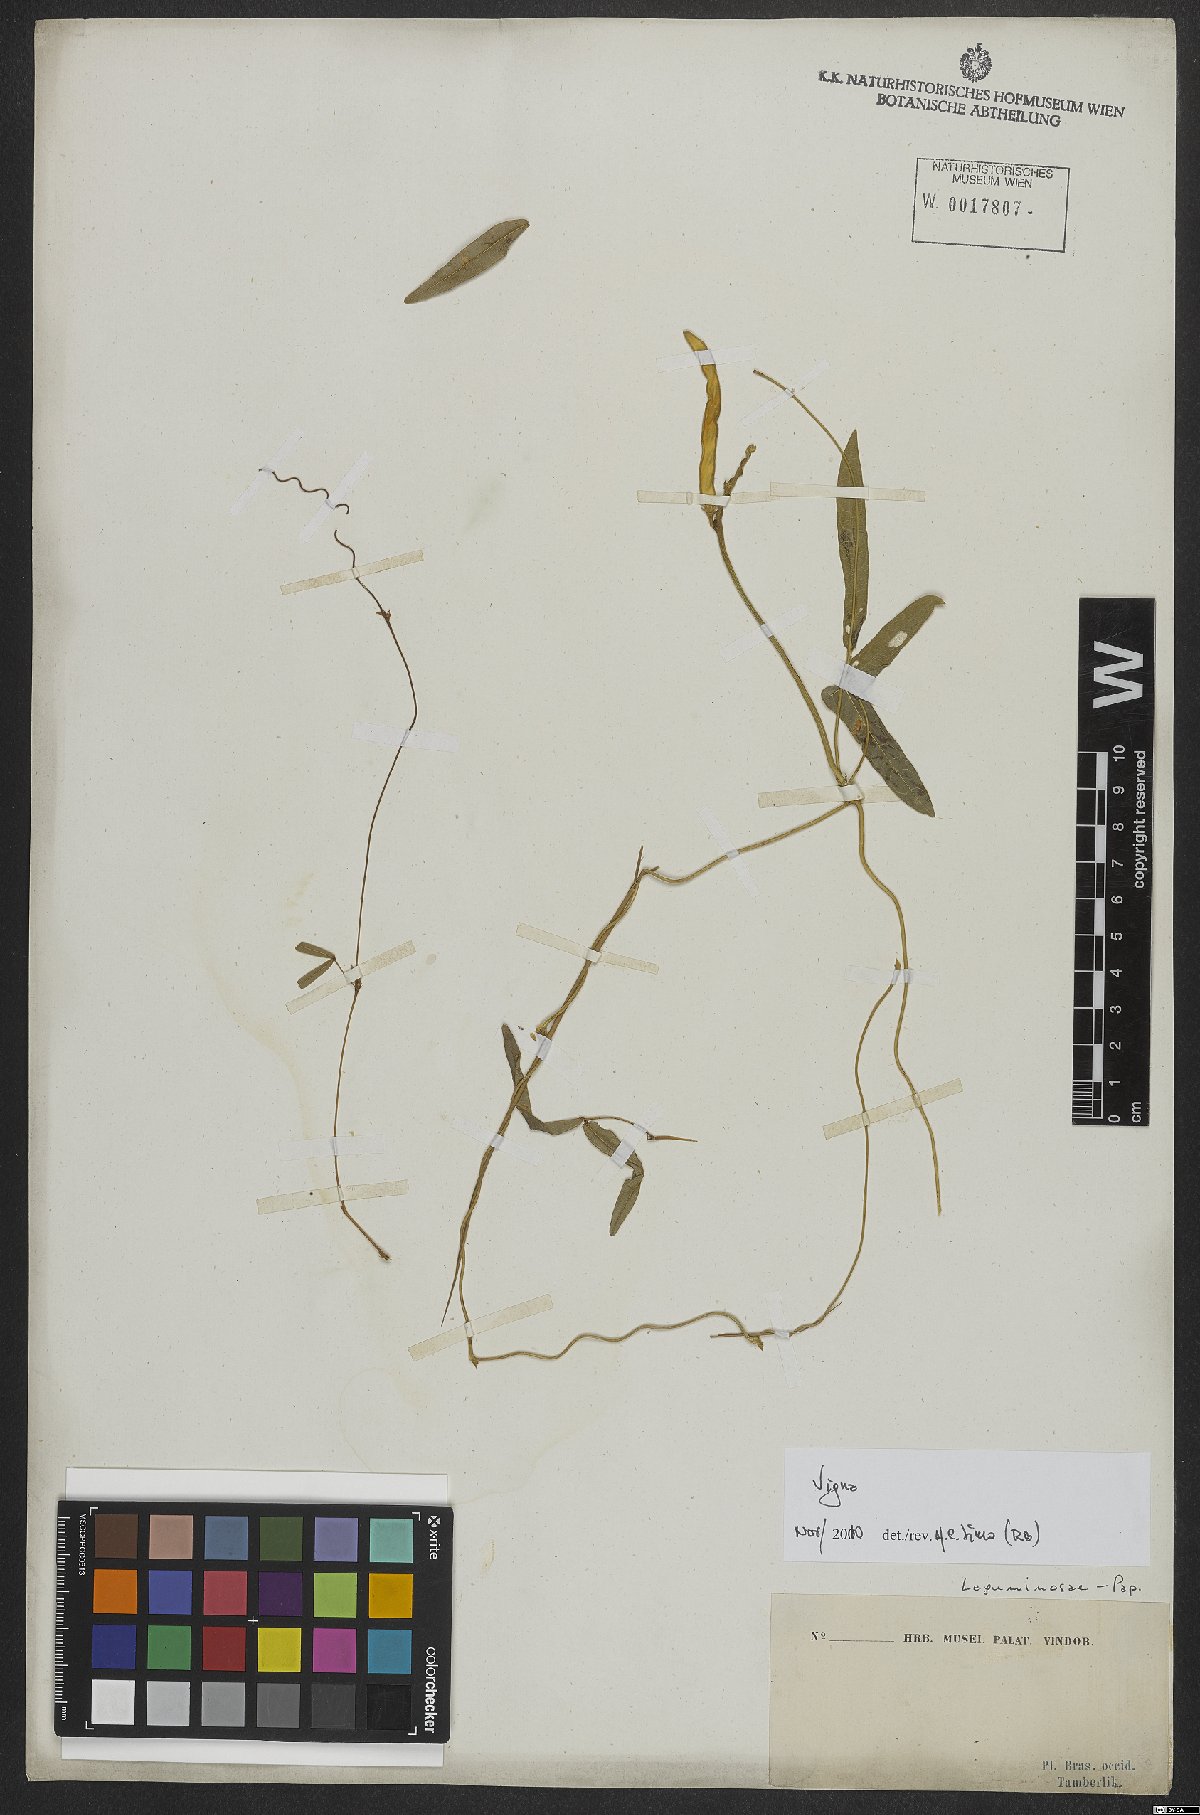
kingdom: Plantae
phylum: Tracheophyta
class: Magnoliopsida
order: Fabales
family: Fabaceae
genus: Vigna
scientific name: Vigna
